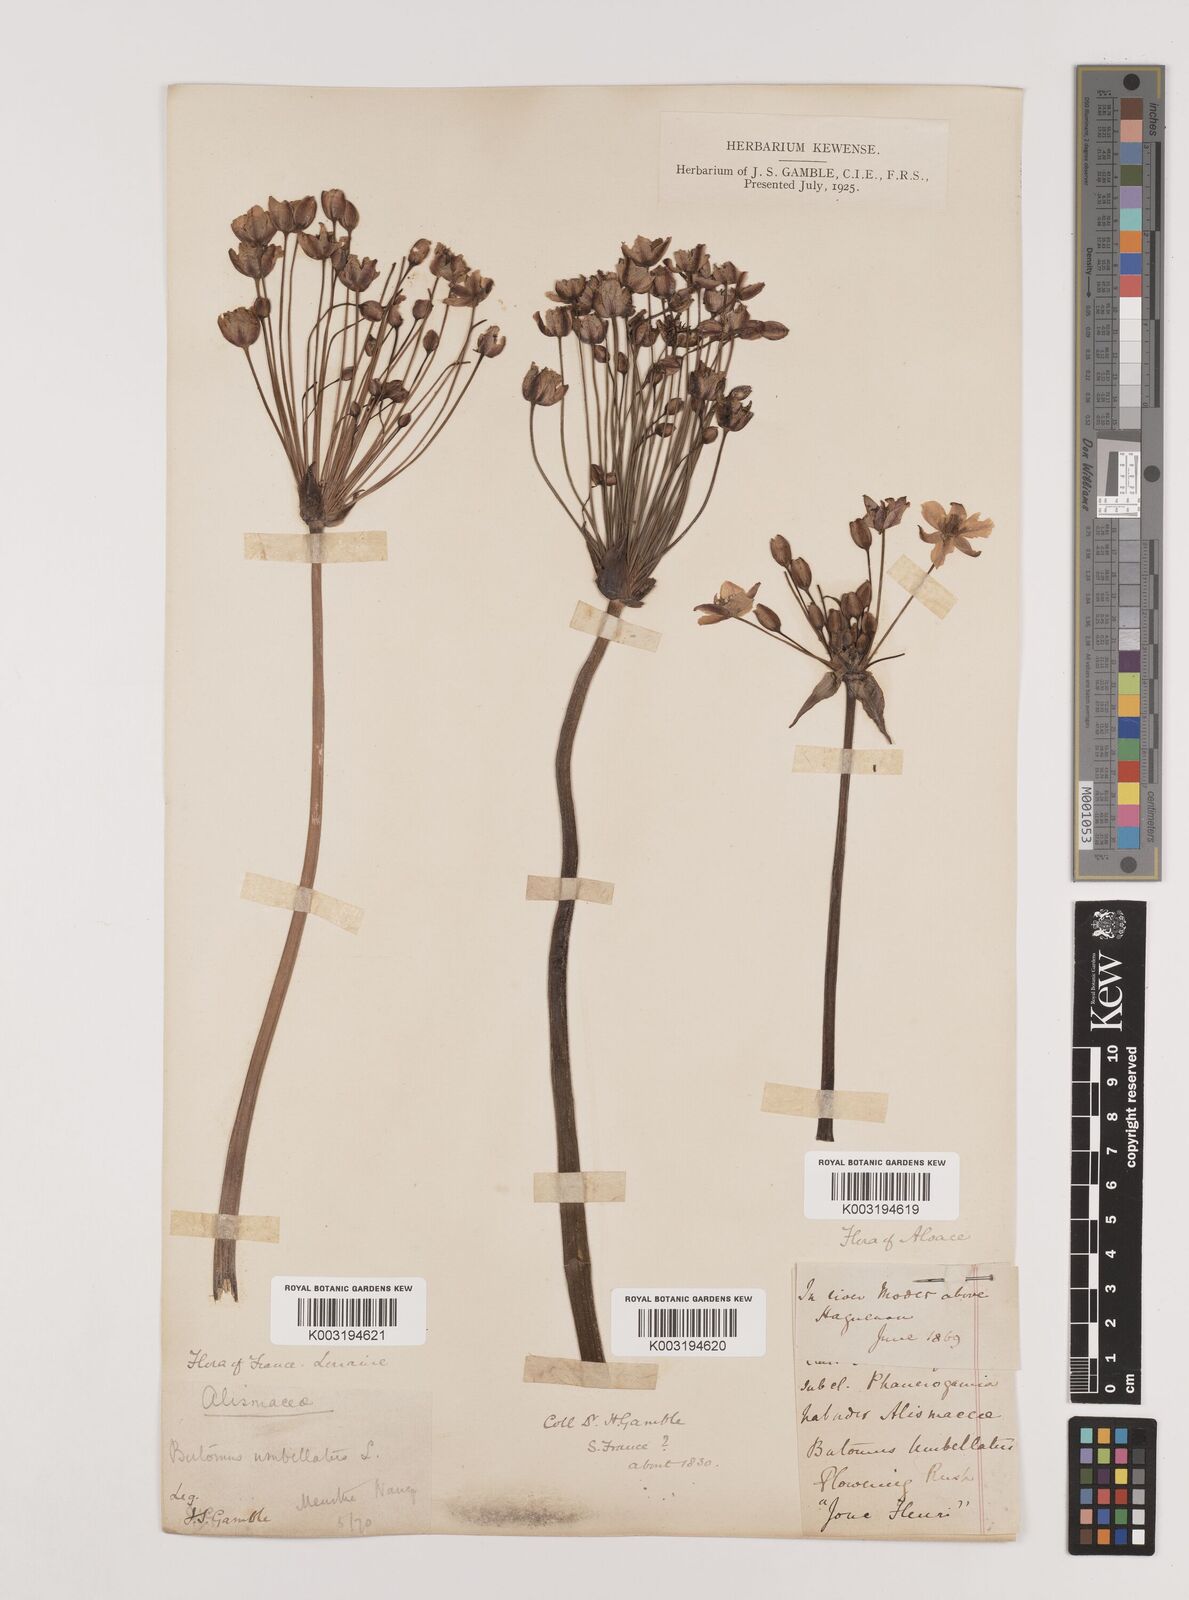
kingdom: Plantae
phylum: Tracheophyta
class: Liliopsida
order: Alismatales
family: Butomaceae
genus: Butomus
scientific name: Butomus umbellatus
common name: Flowering-rush
